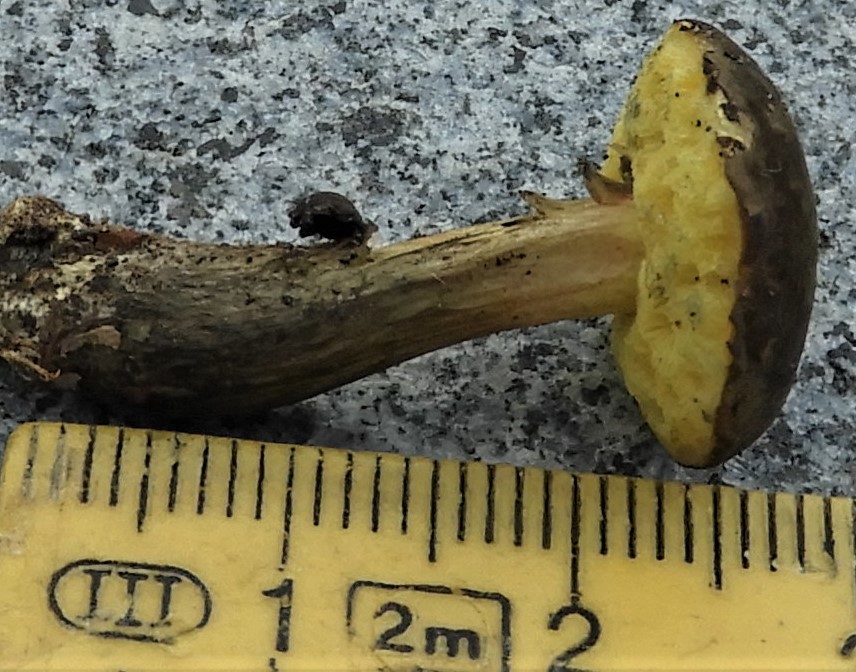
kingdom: Fungi
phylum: Basidiomycota
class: Agaricomycetes
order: Boletales
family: Boletaceae
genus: Xerocomellus
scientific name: Xerocomellus
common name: dværgrørhat
